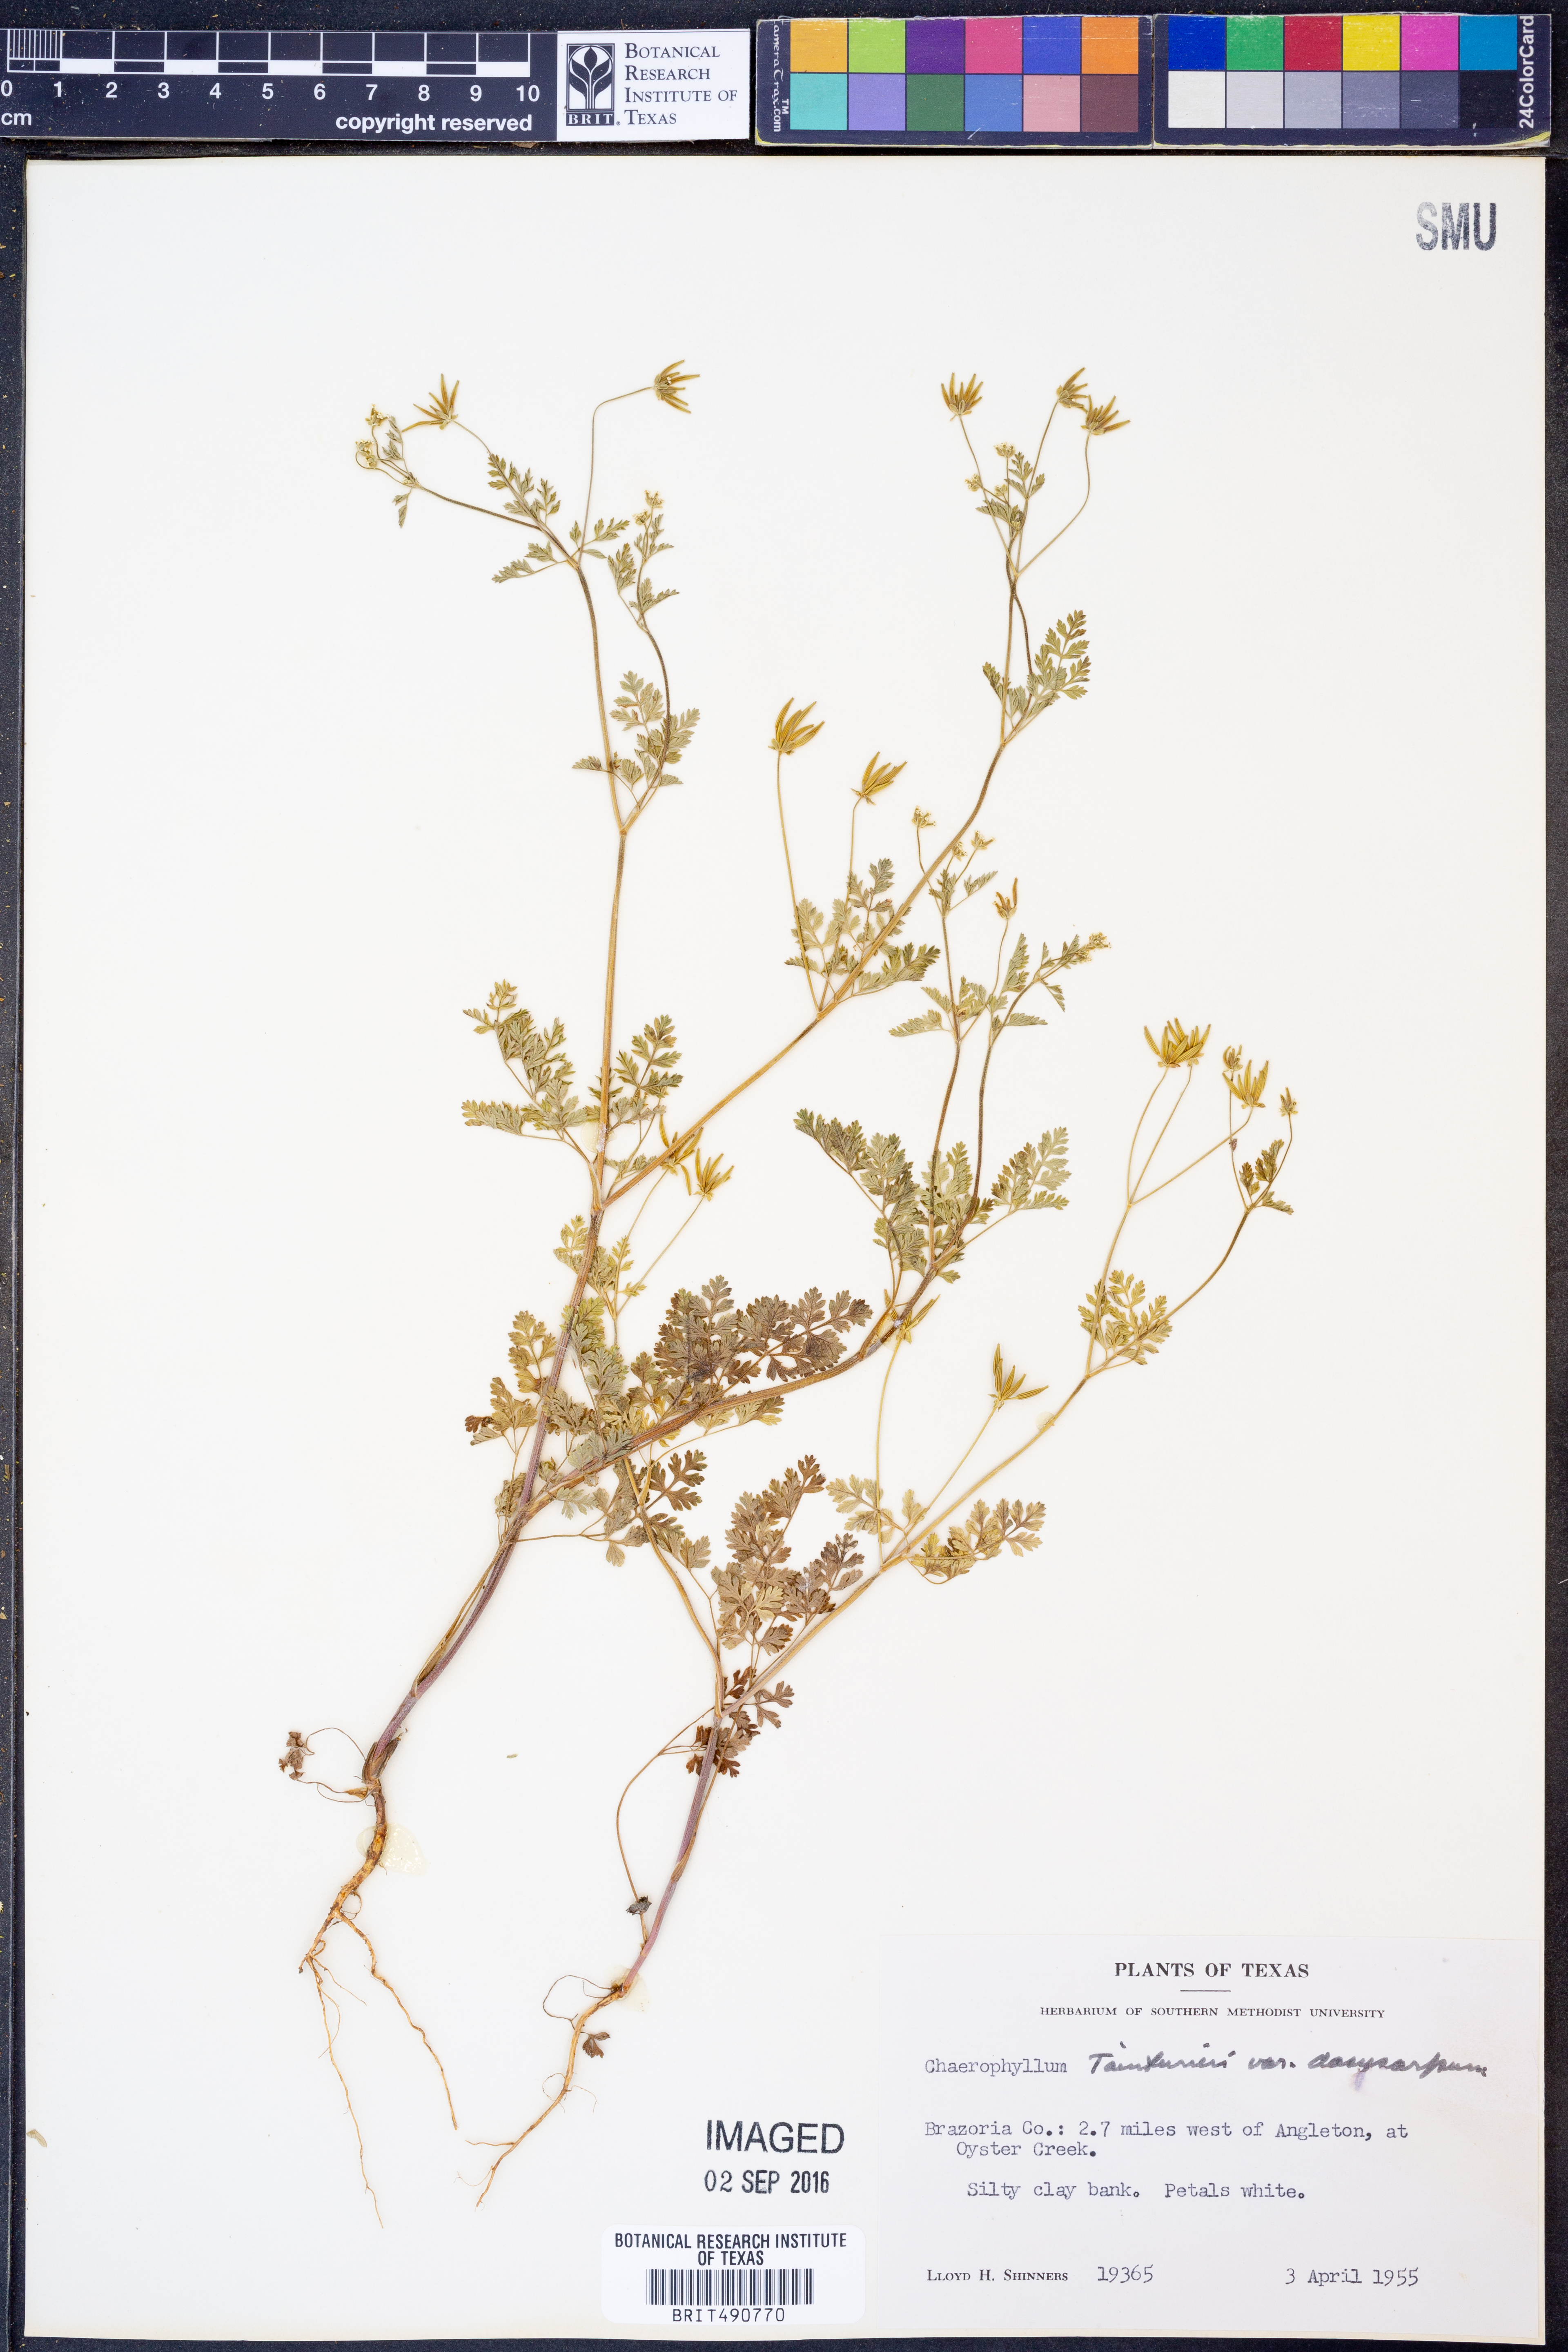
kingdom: Plantae
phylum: Tracheophyta
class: Magnoliopsida
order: Apiales
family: Apiaceae
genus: Chaerophyllum
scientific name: Chaerophyllum dasycarpum
